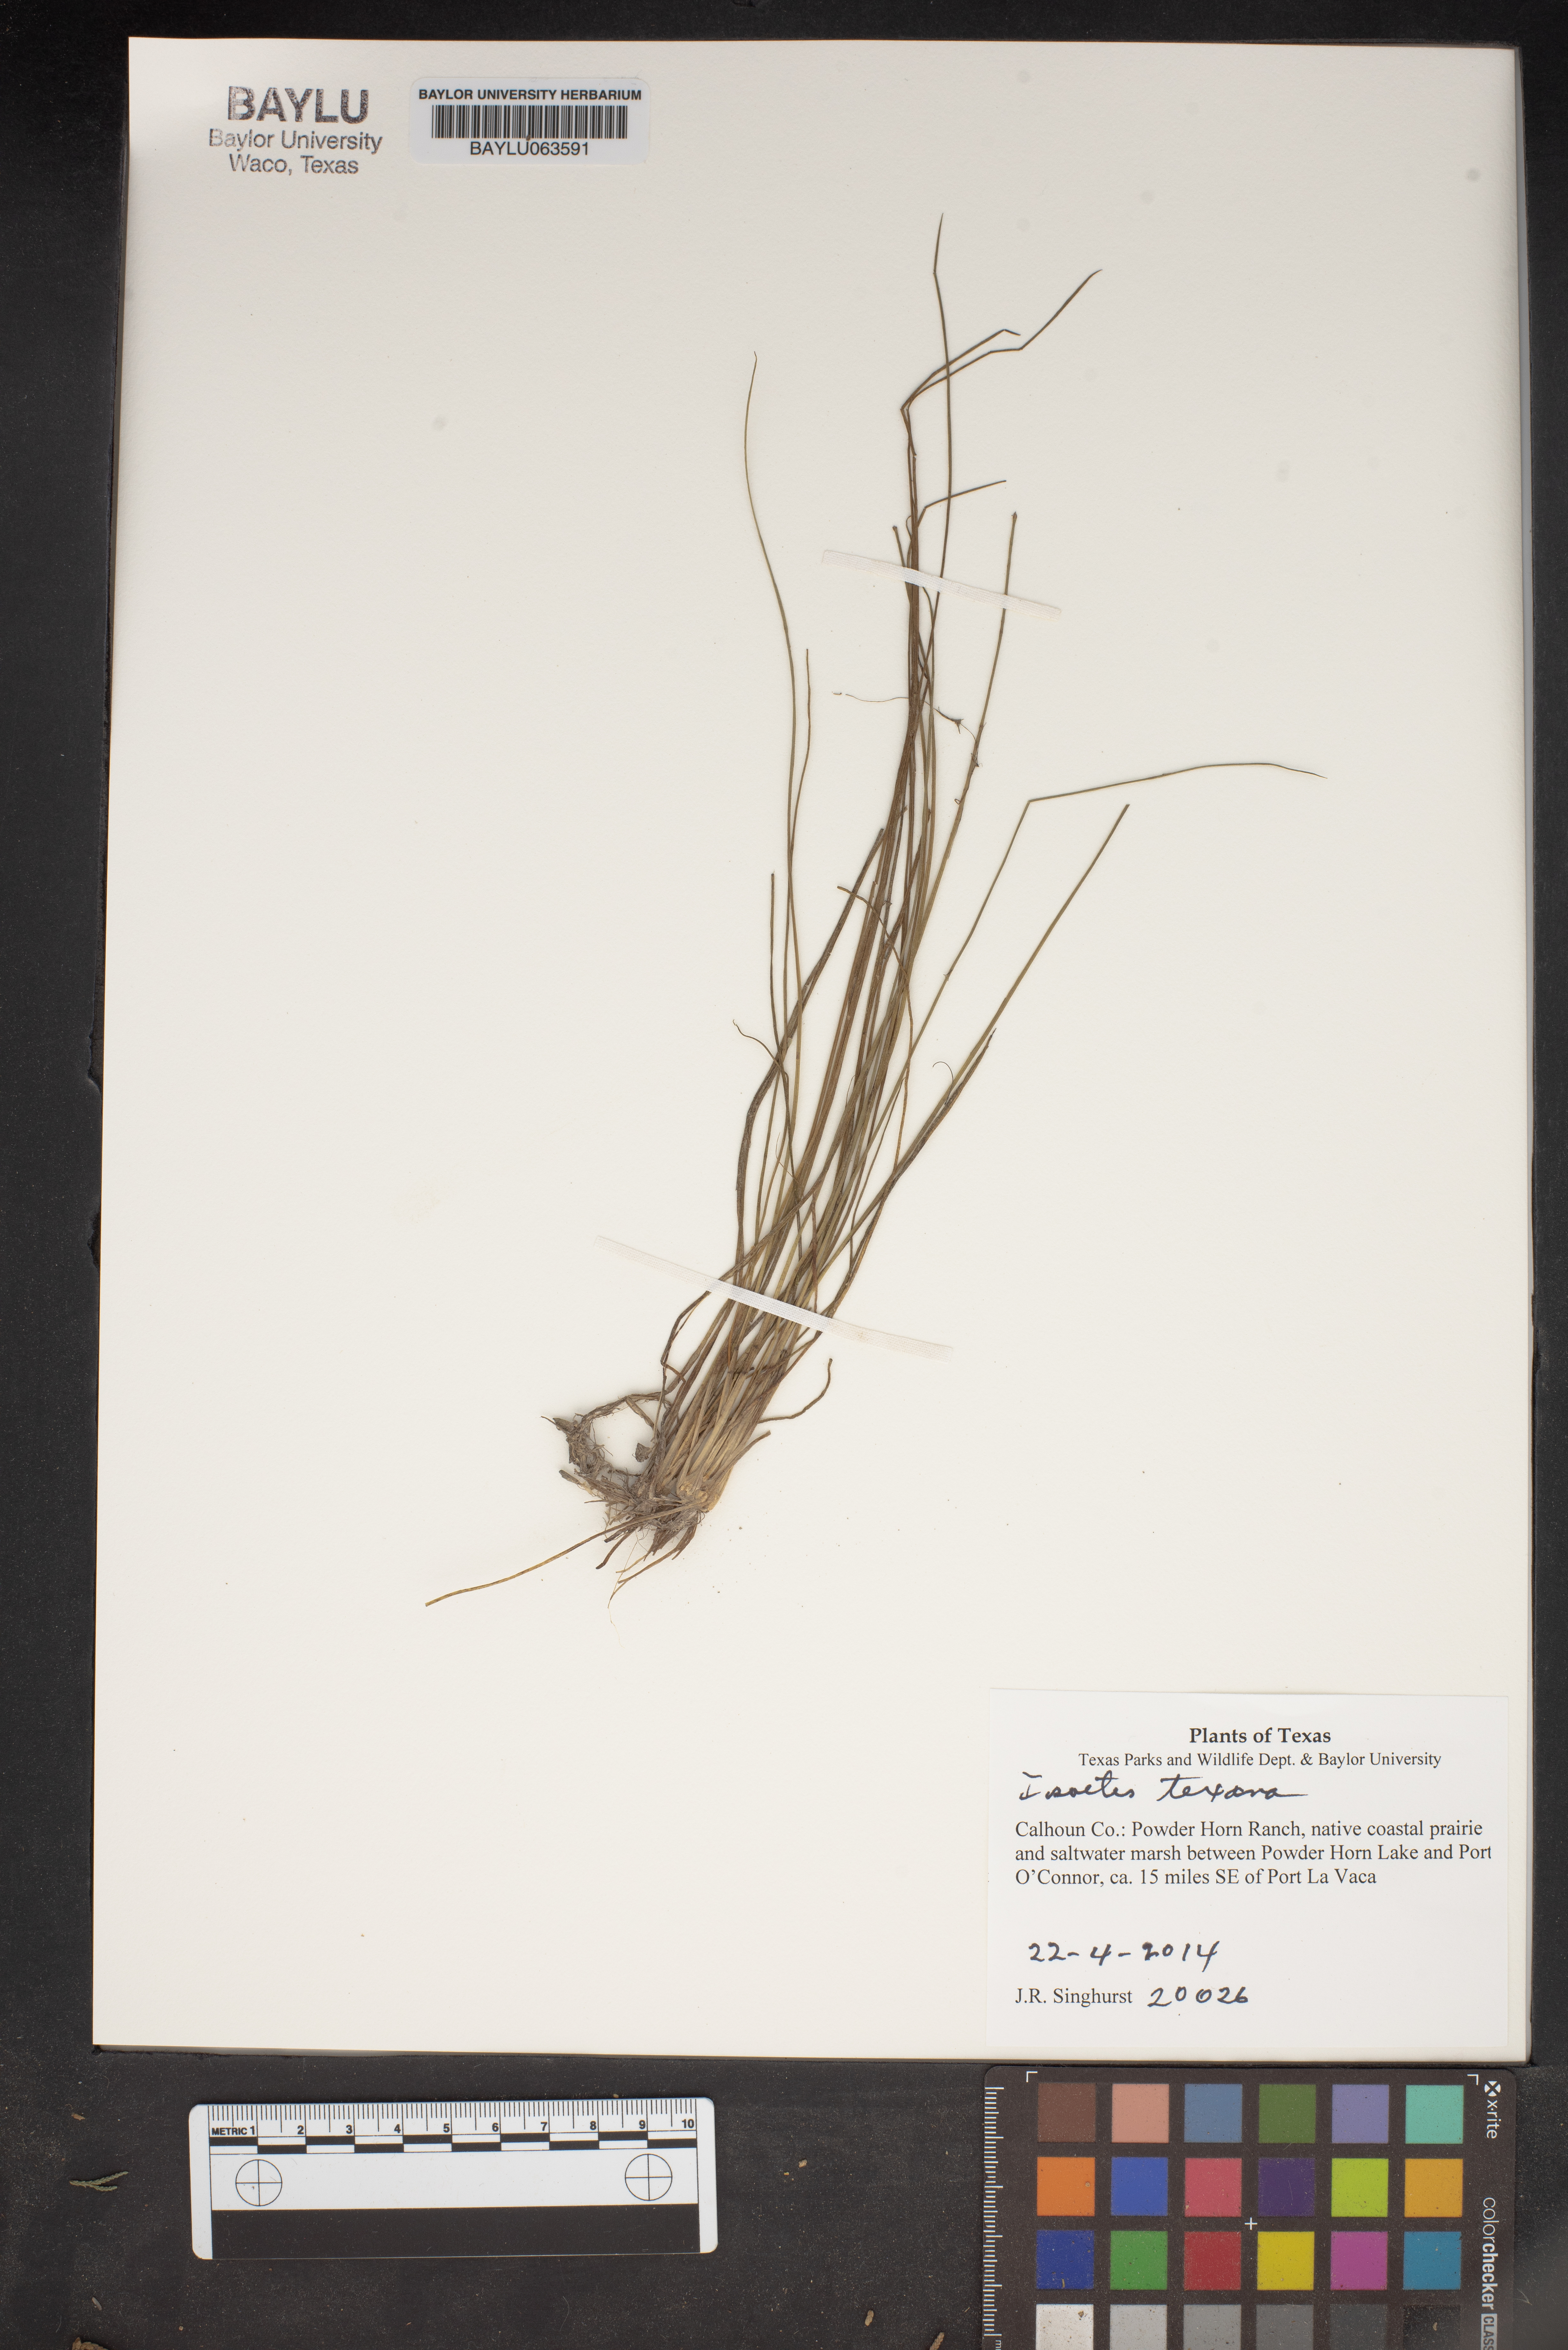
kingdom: Plantae
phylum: Tracheophyta
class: Lycopodiopsida
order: Isoetales
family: Isoetaceae
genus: Isoetes
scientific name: Isoetes texana
